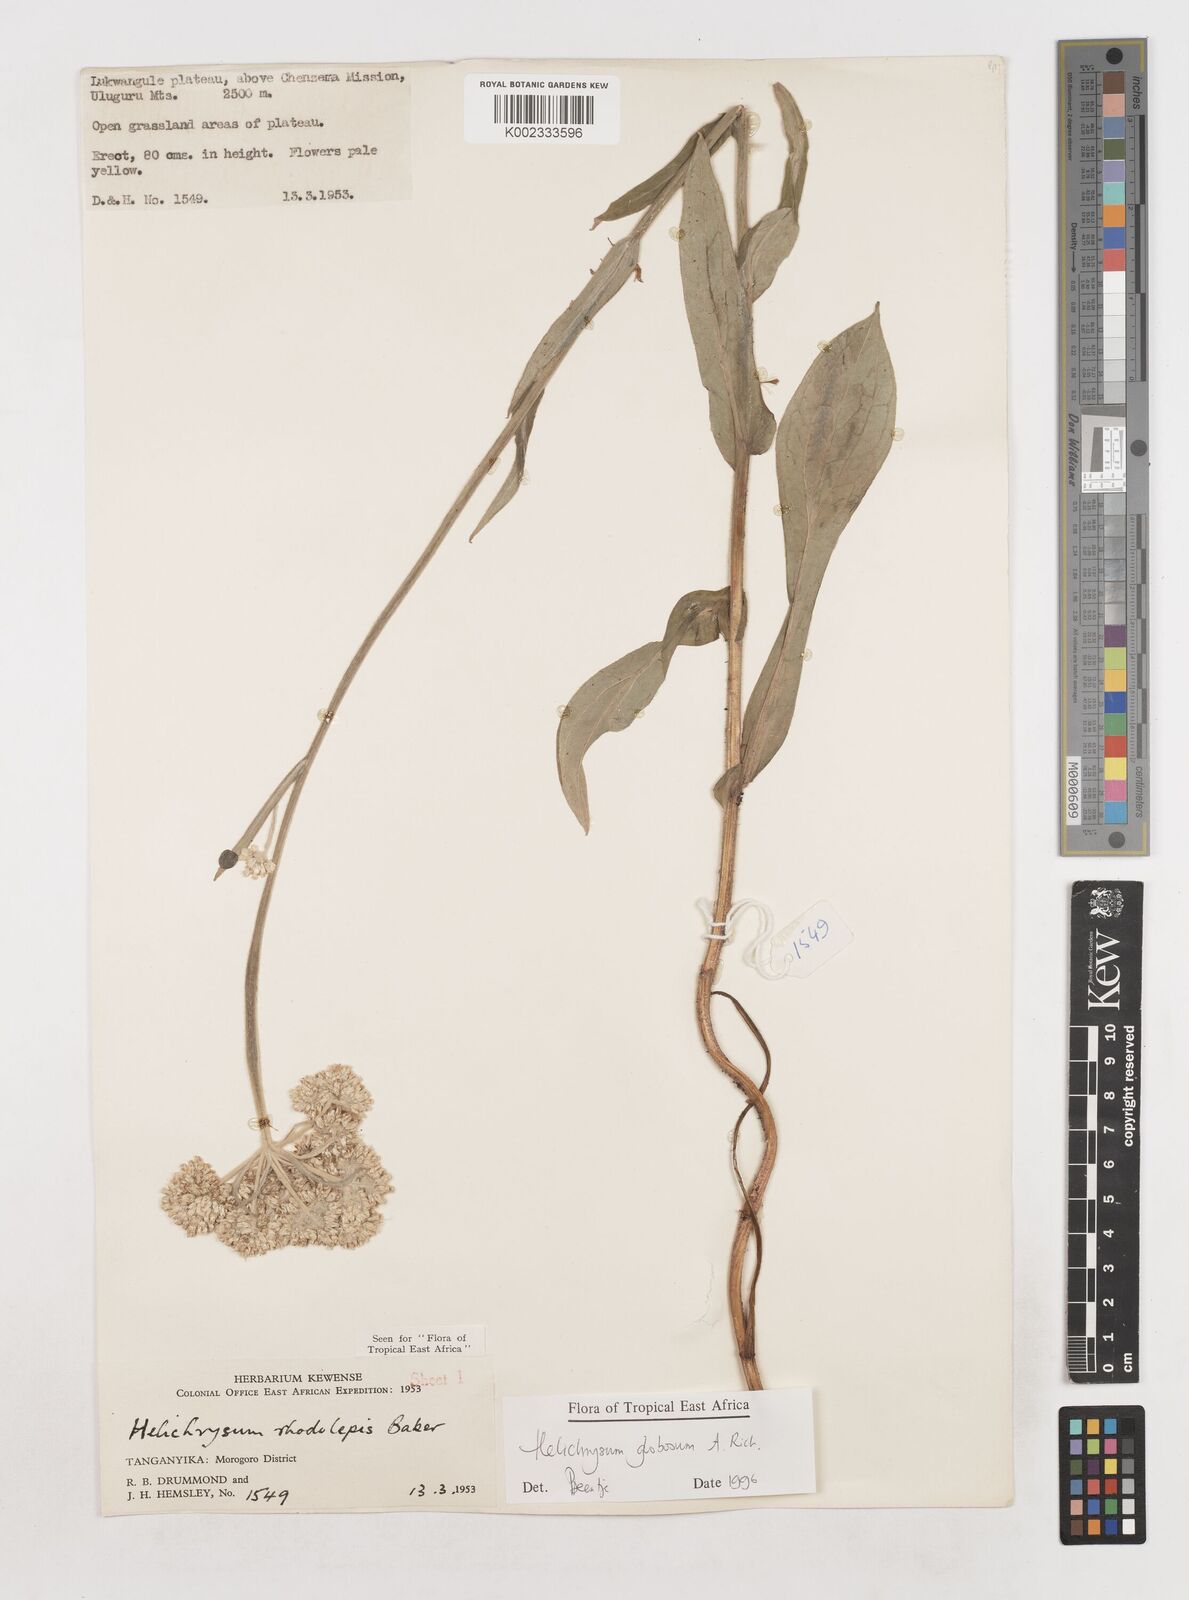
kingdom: Plantae
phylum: Tracheophyta
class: Magnoliopsida
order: Asterales
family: Asteraceae
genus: Helichrysum
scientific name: Helichrysum globosum
